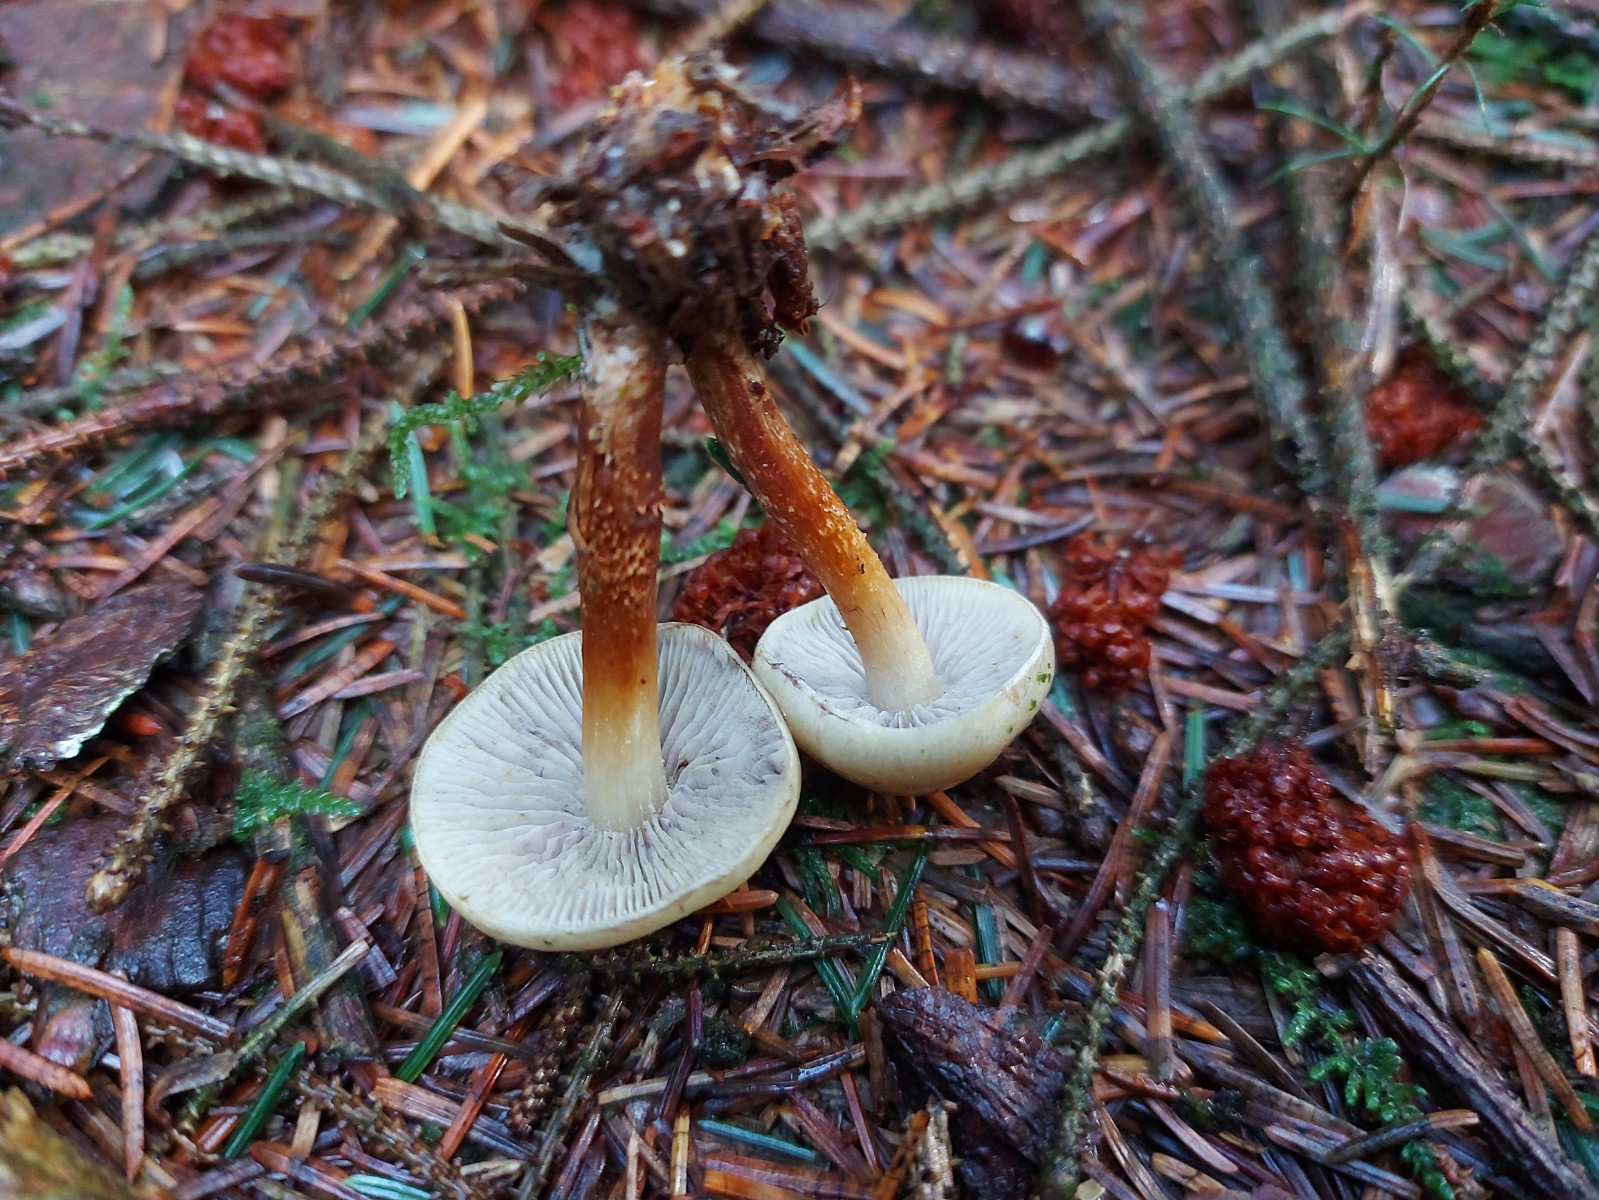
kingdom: Fungi
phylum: Basidiomycota
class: Agaricomycetes
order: Agaricales
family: Strophariaceae
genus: Hypholoma
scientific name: Hypholoma capnoides
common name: gran-svovlhat
